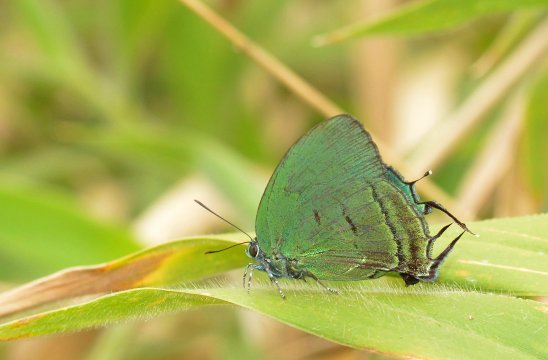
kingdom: Animalia
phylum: Arthropoda
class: Insecta
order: Lepidoptera
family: Lycaenidae
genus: Theritas
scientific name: Theritas mavors
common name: Deep-green Hairstreak
